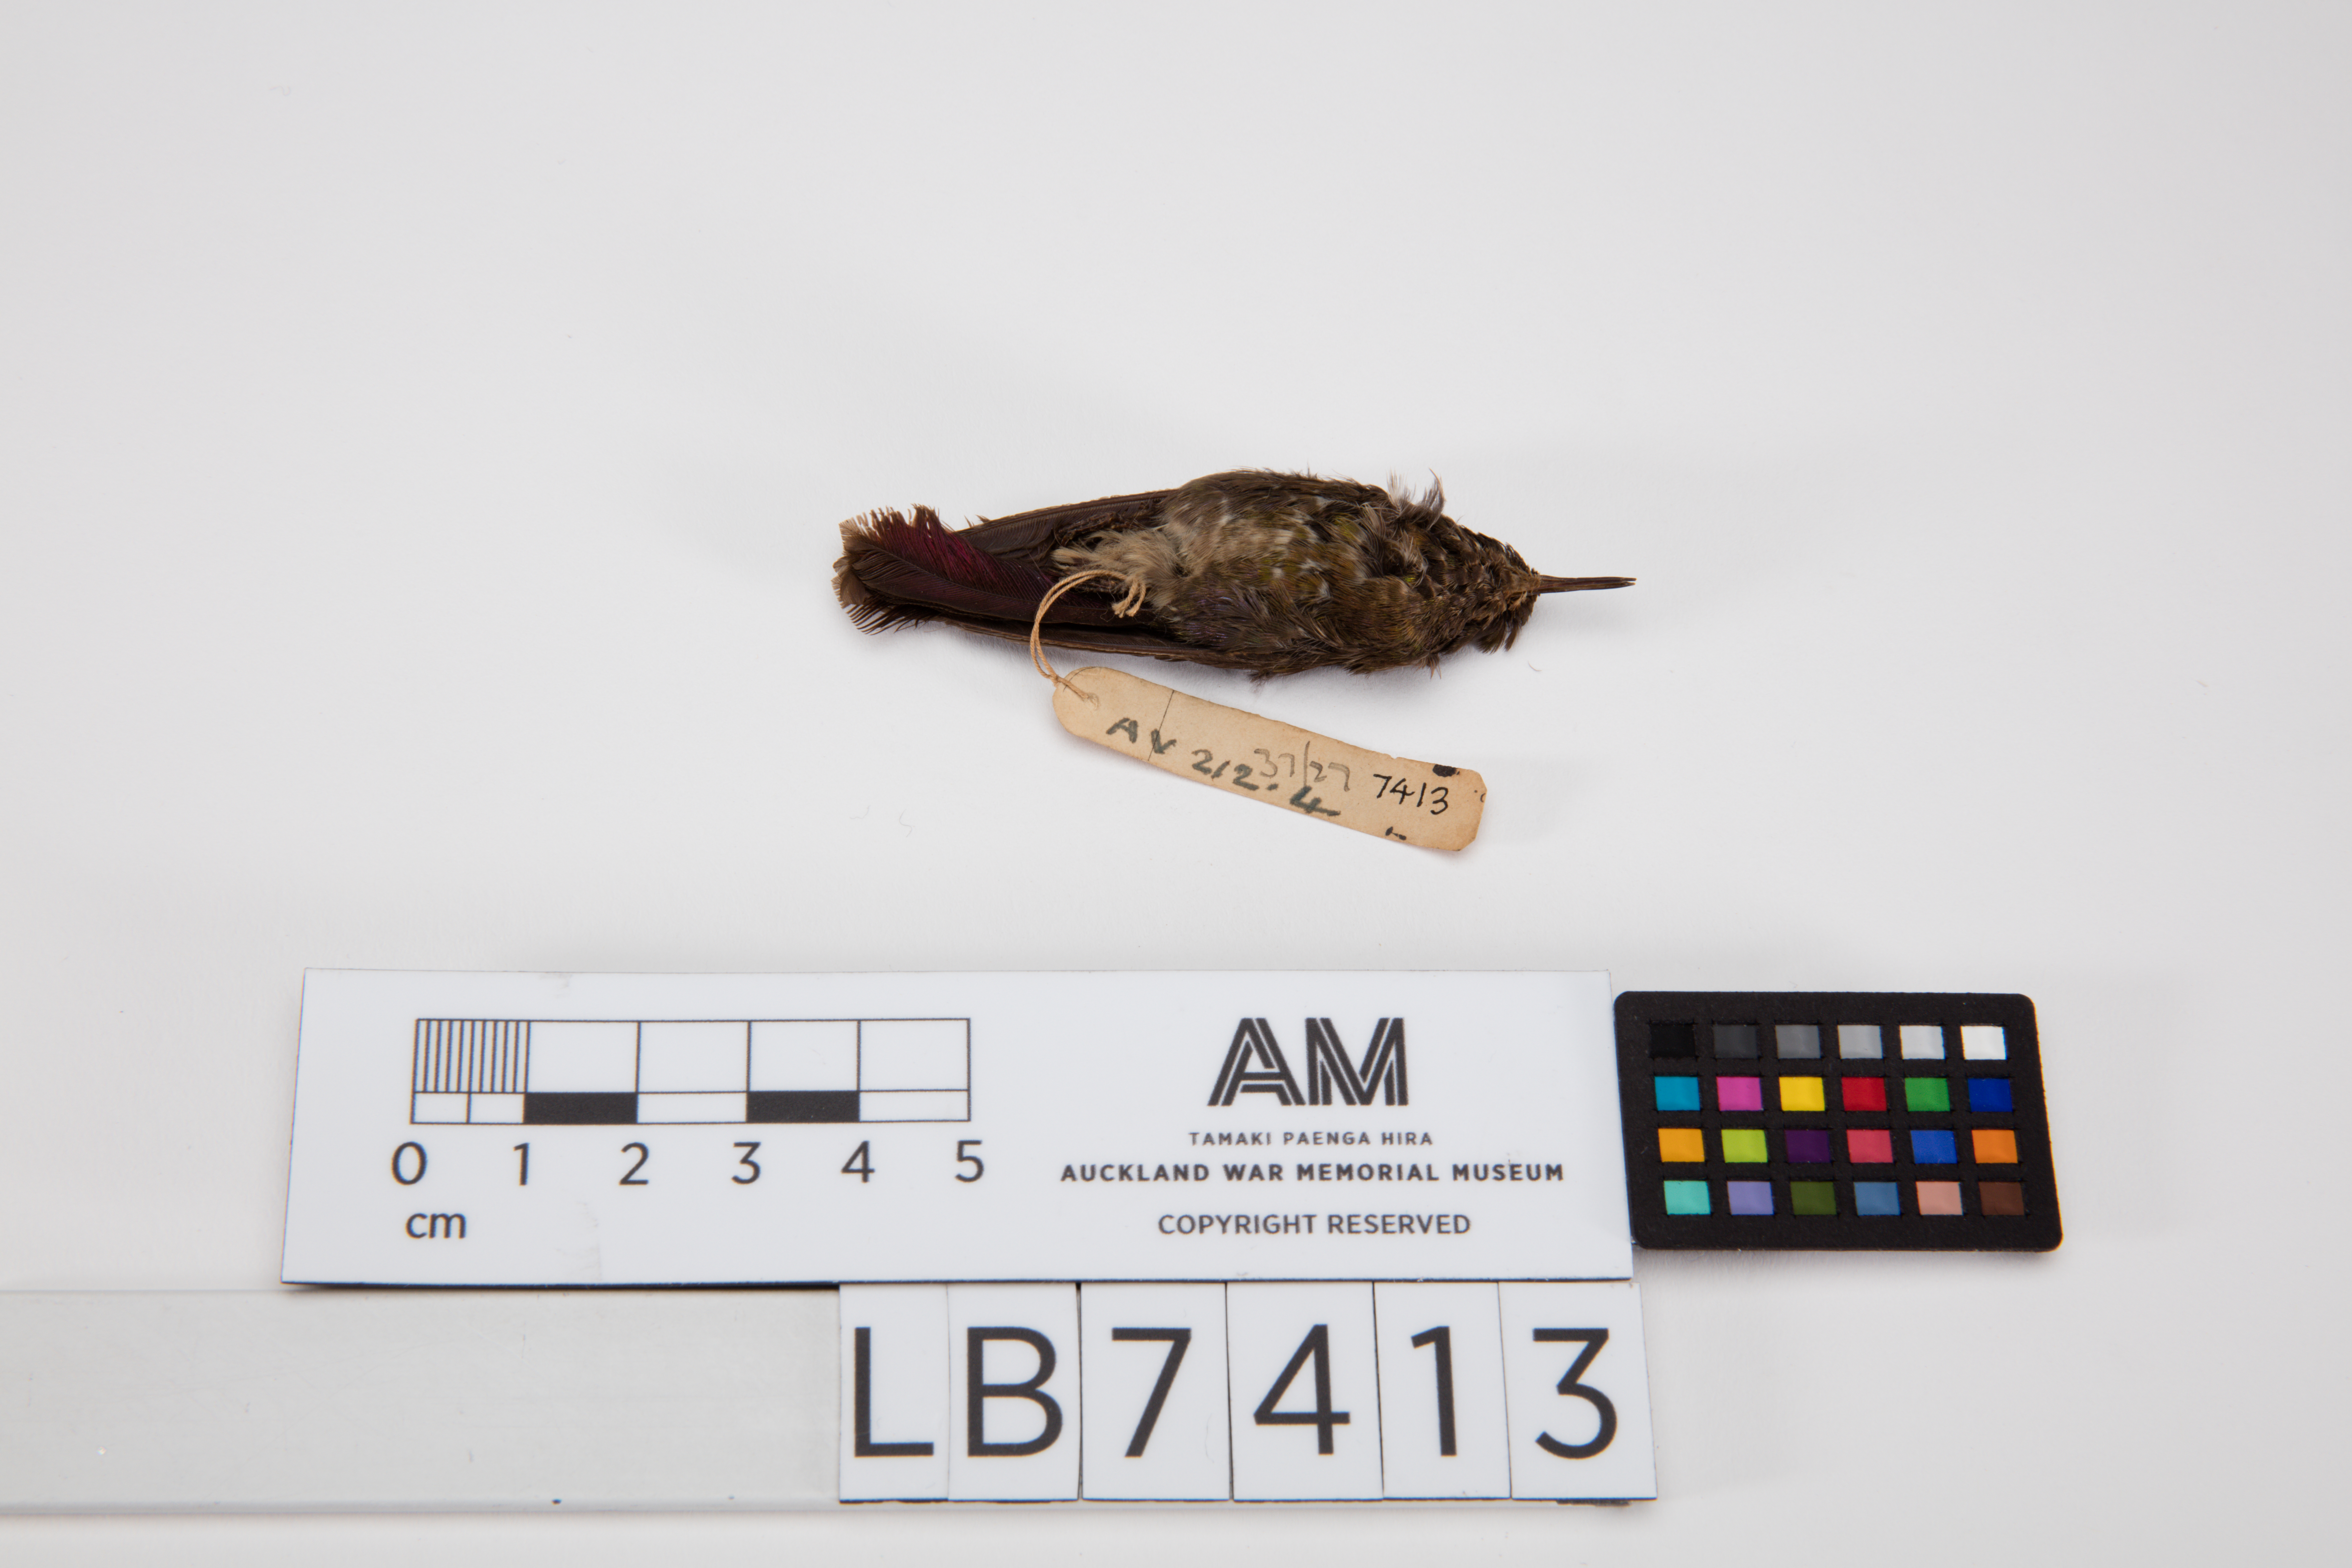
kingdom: Animalia
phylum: Chordata
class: Aves
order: Apodiformes
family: Trochilidae
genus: Metallura
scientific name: Metallura tyrianthina
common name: Tyrian metaltail
